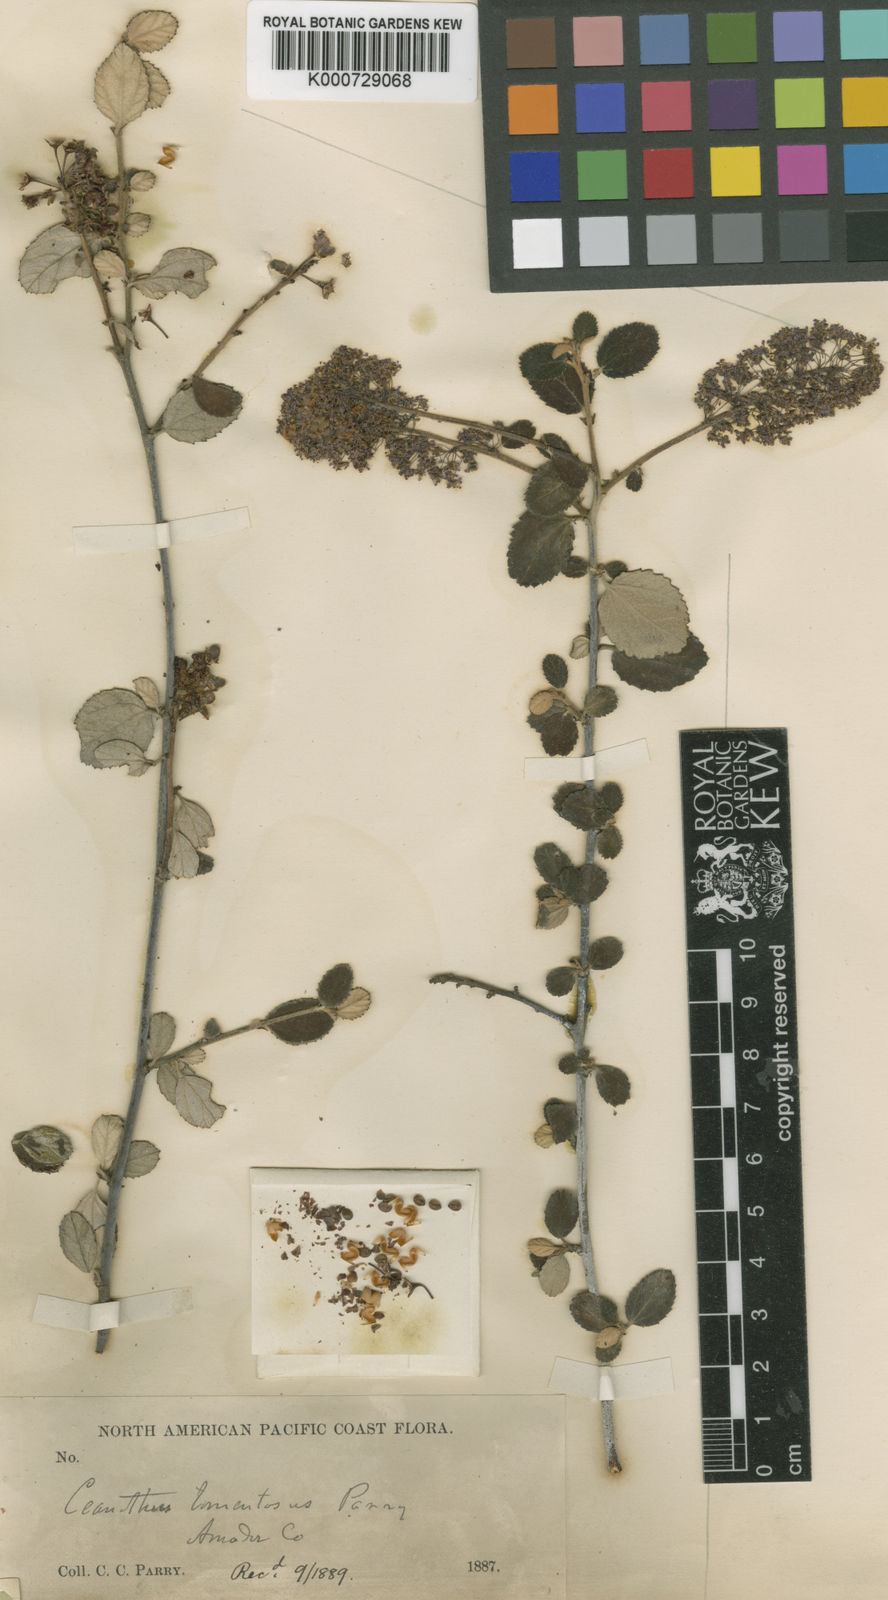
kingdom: Plantae
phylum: Tracheophyta
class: Magnoliopsida
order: Rosales
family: Rhamnaceae
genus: Ceanothus
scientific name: Ceanothus tomentosus
